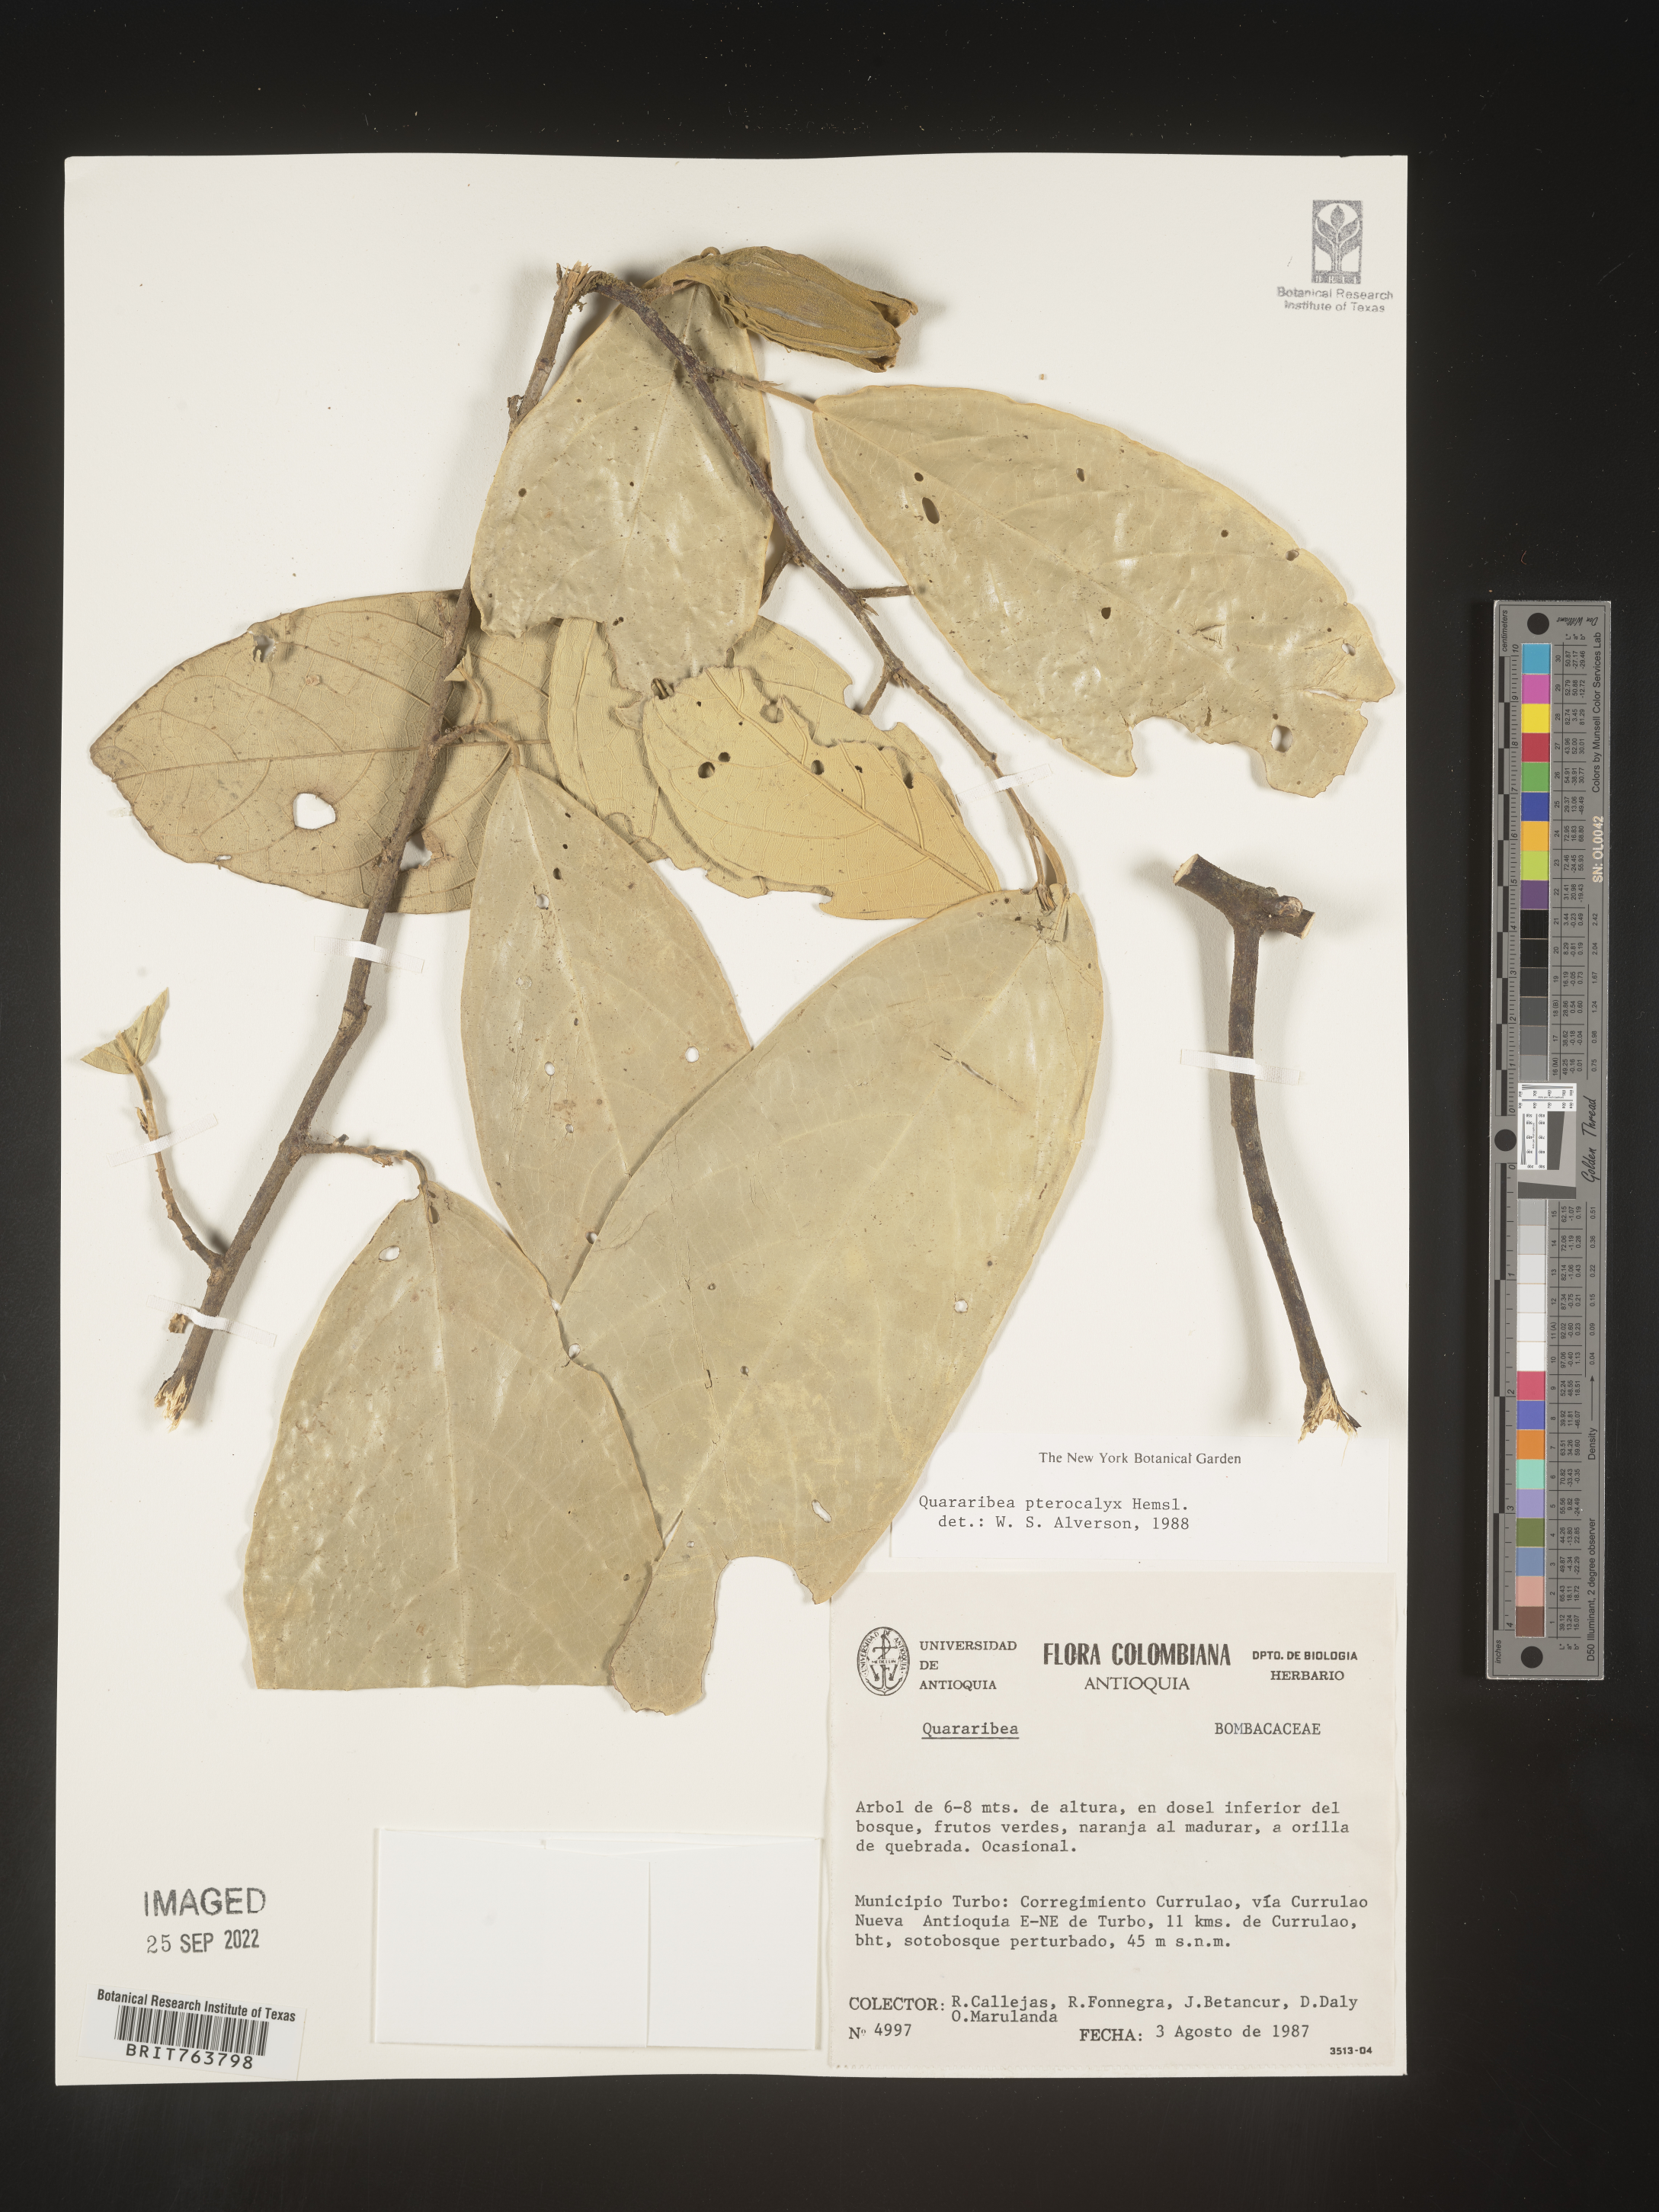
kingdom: Plantae
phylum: Tracheophyta
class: Magnoliopsida
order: Malvales
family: Malvaceae
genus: Quararibea
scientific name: Quararibea
